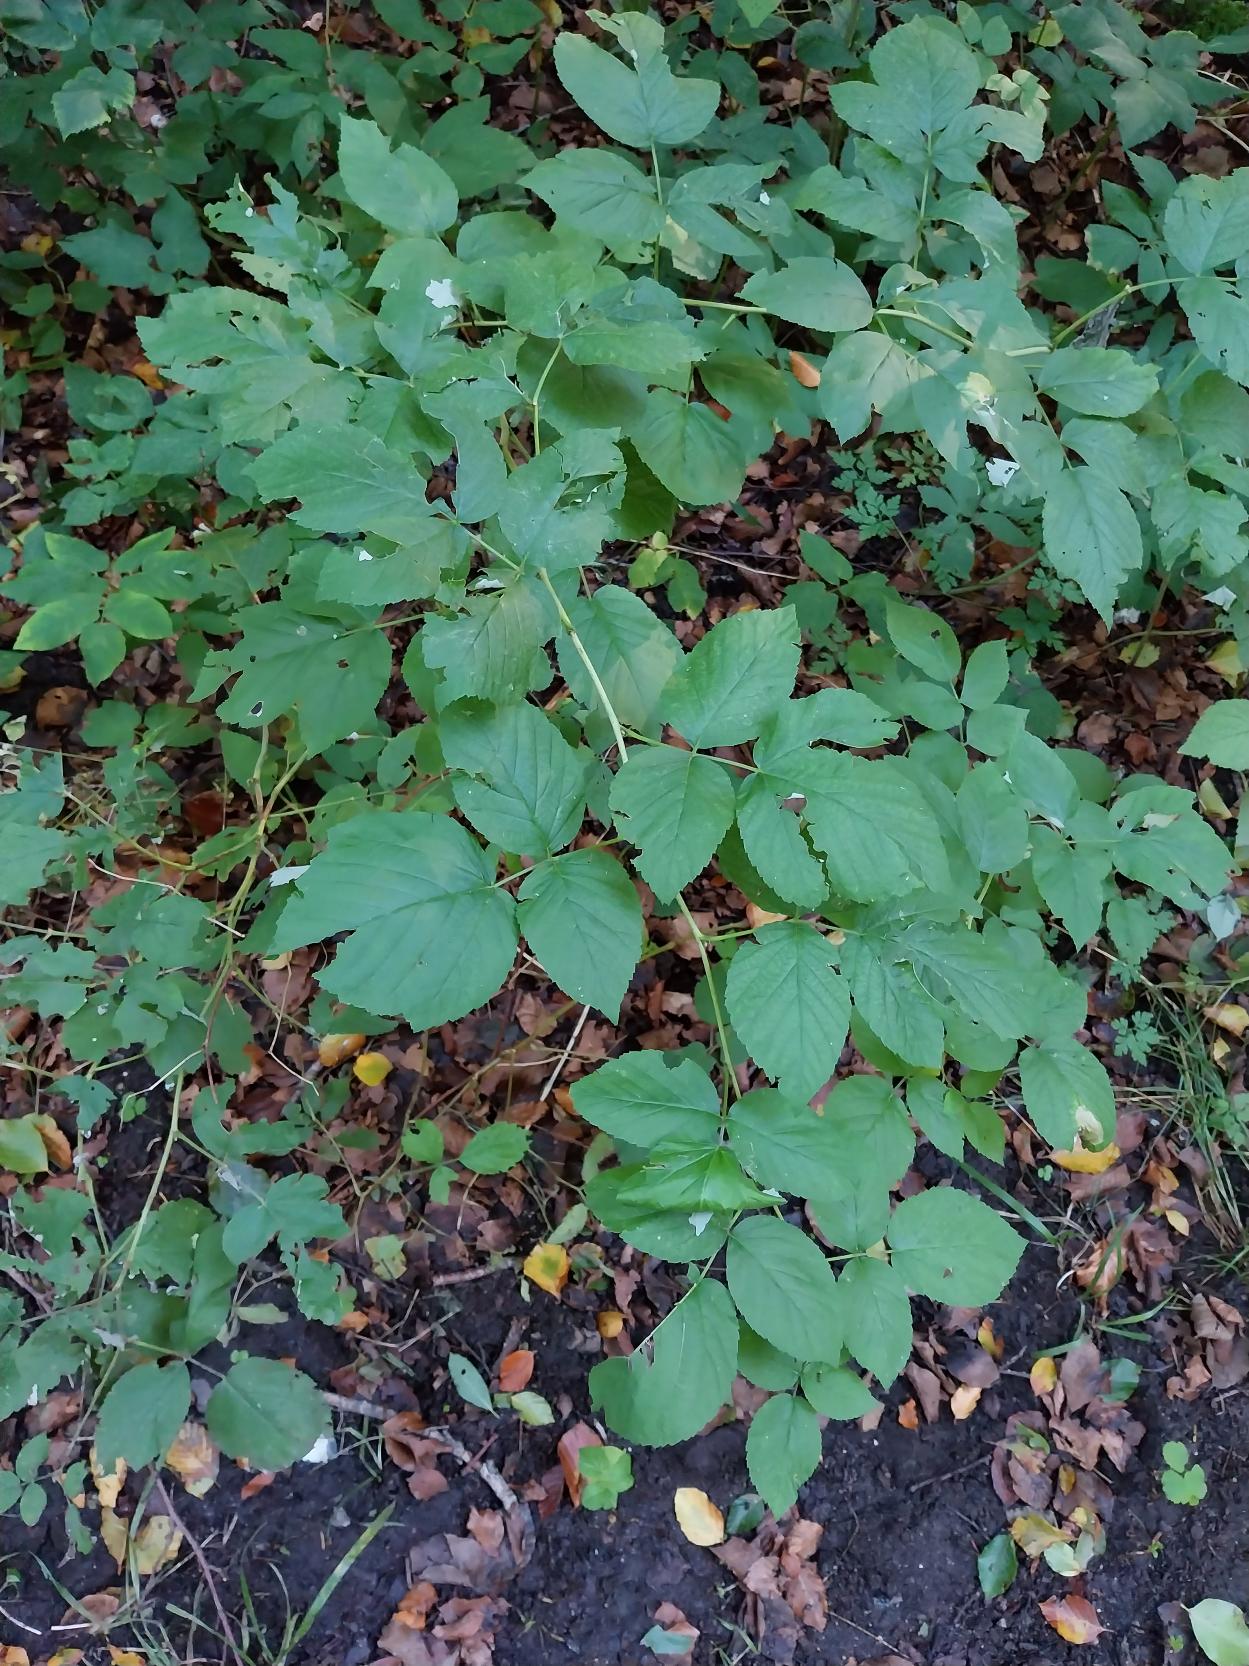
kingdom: Plantae
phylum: Tracheophyta
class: Magnoliopsida
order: Rosales
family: Rosaceae
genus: Rubus
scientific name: Rubus idaeus
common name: Hindbær
